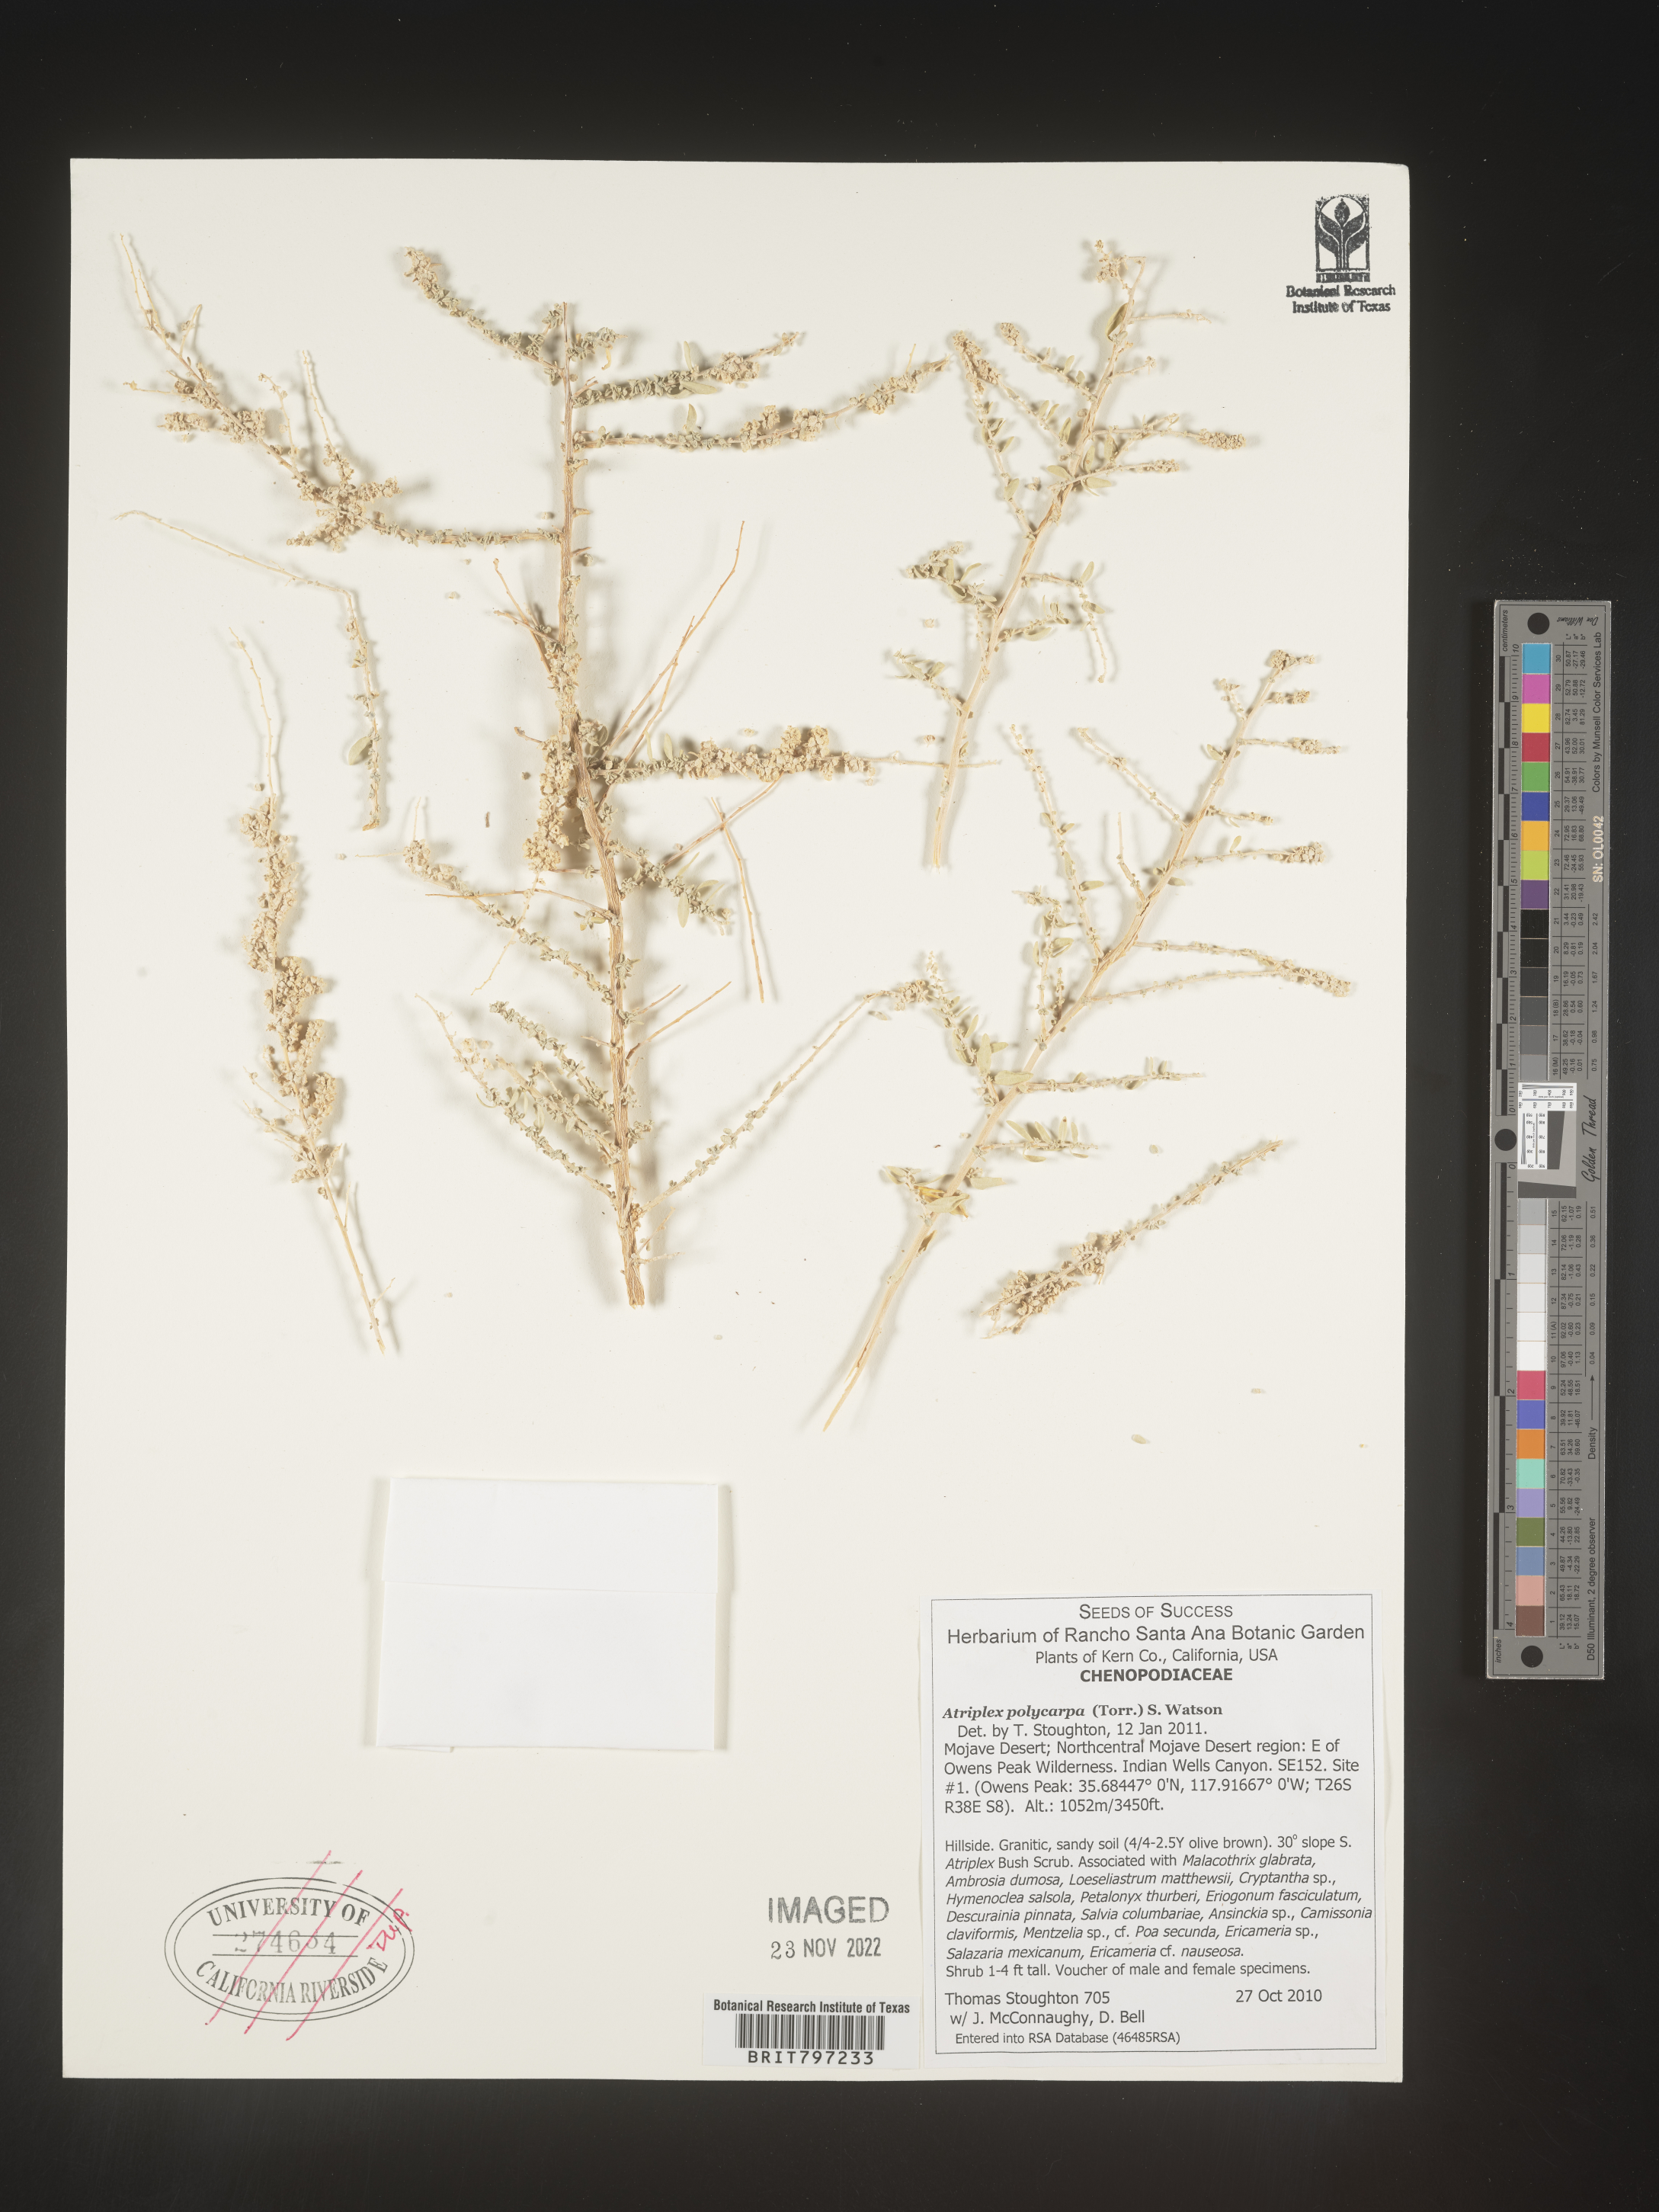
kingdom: Plantae
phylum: Tracheophyta
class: Magnoliopsida
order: Caryophyllales
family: Amaranthaceae
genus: Atriplex
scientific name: Atriplex polycarpa
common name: Desert saltbush
